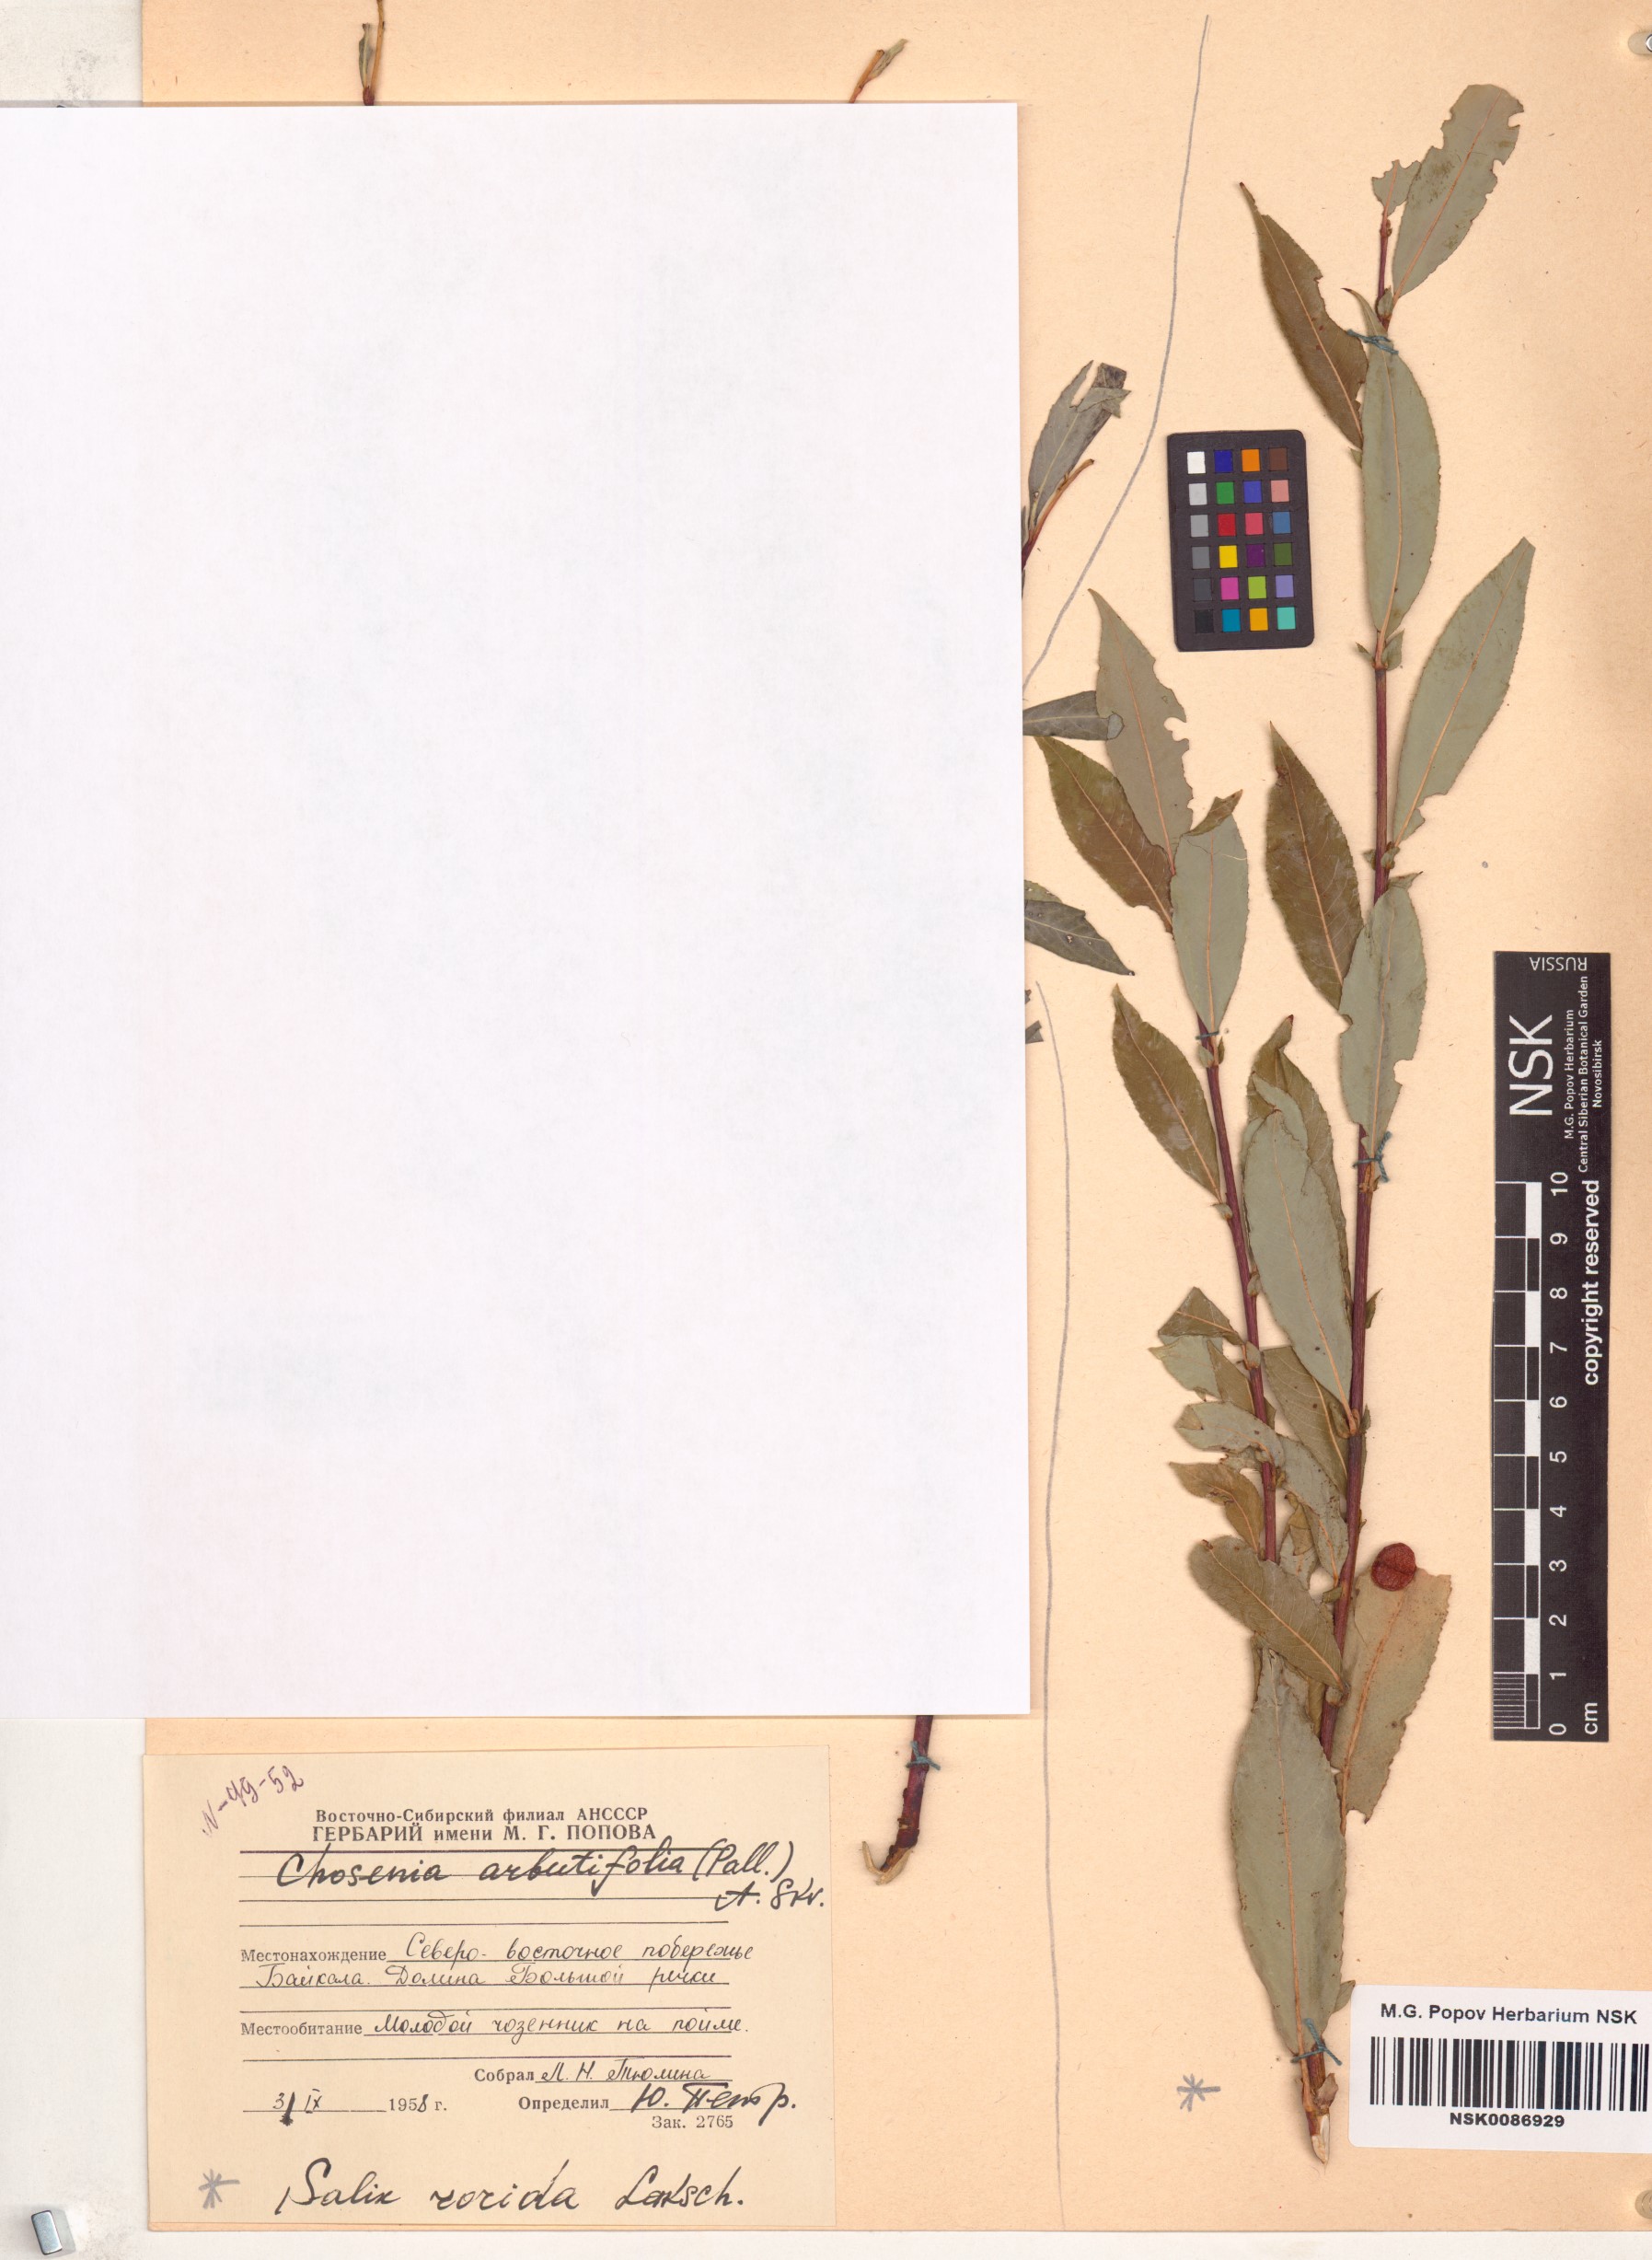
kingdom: Plantae
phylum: Tracheophyta
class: Magnoliopsida
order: Malpighiales
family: Salicaceae
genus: Salix
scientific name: Salix rorida
